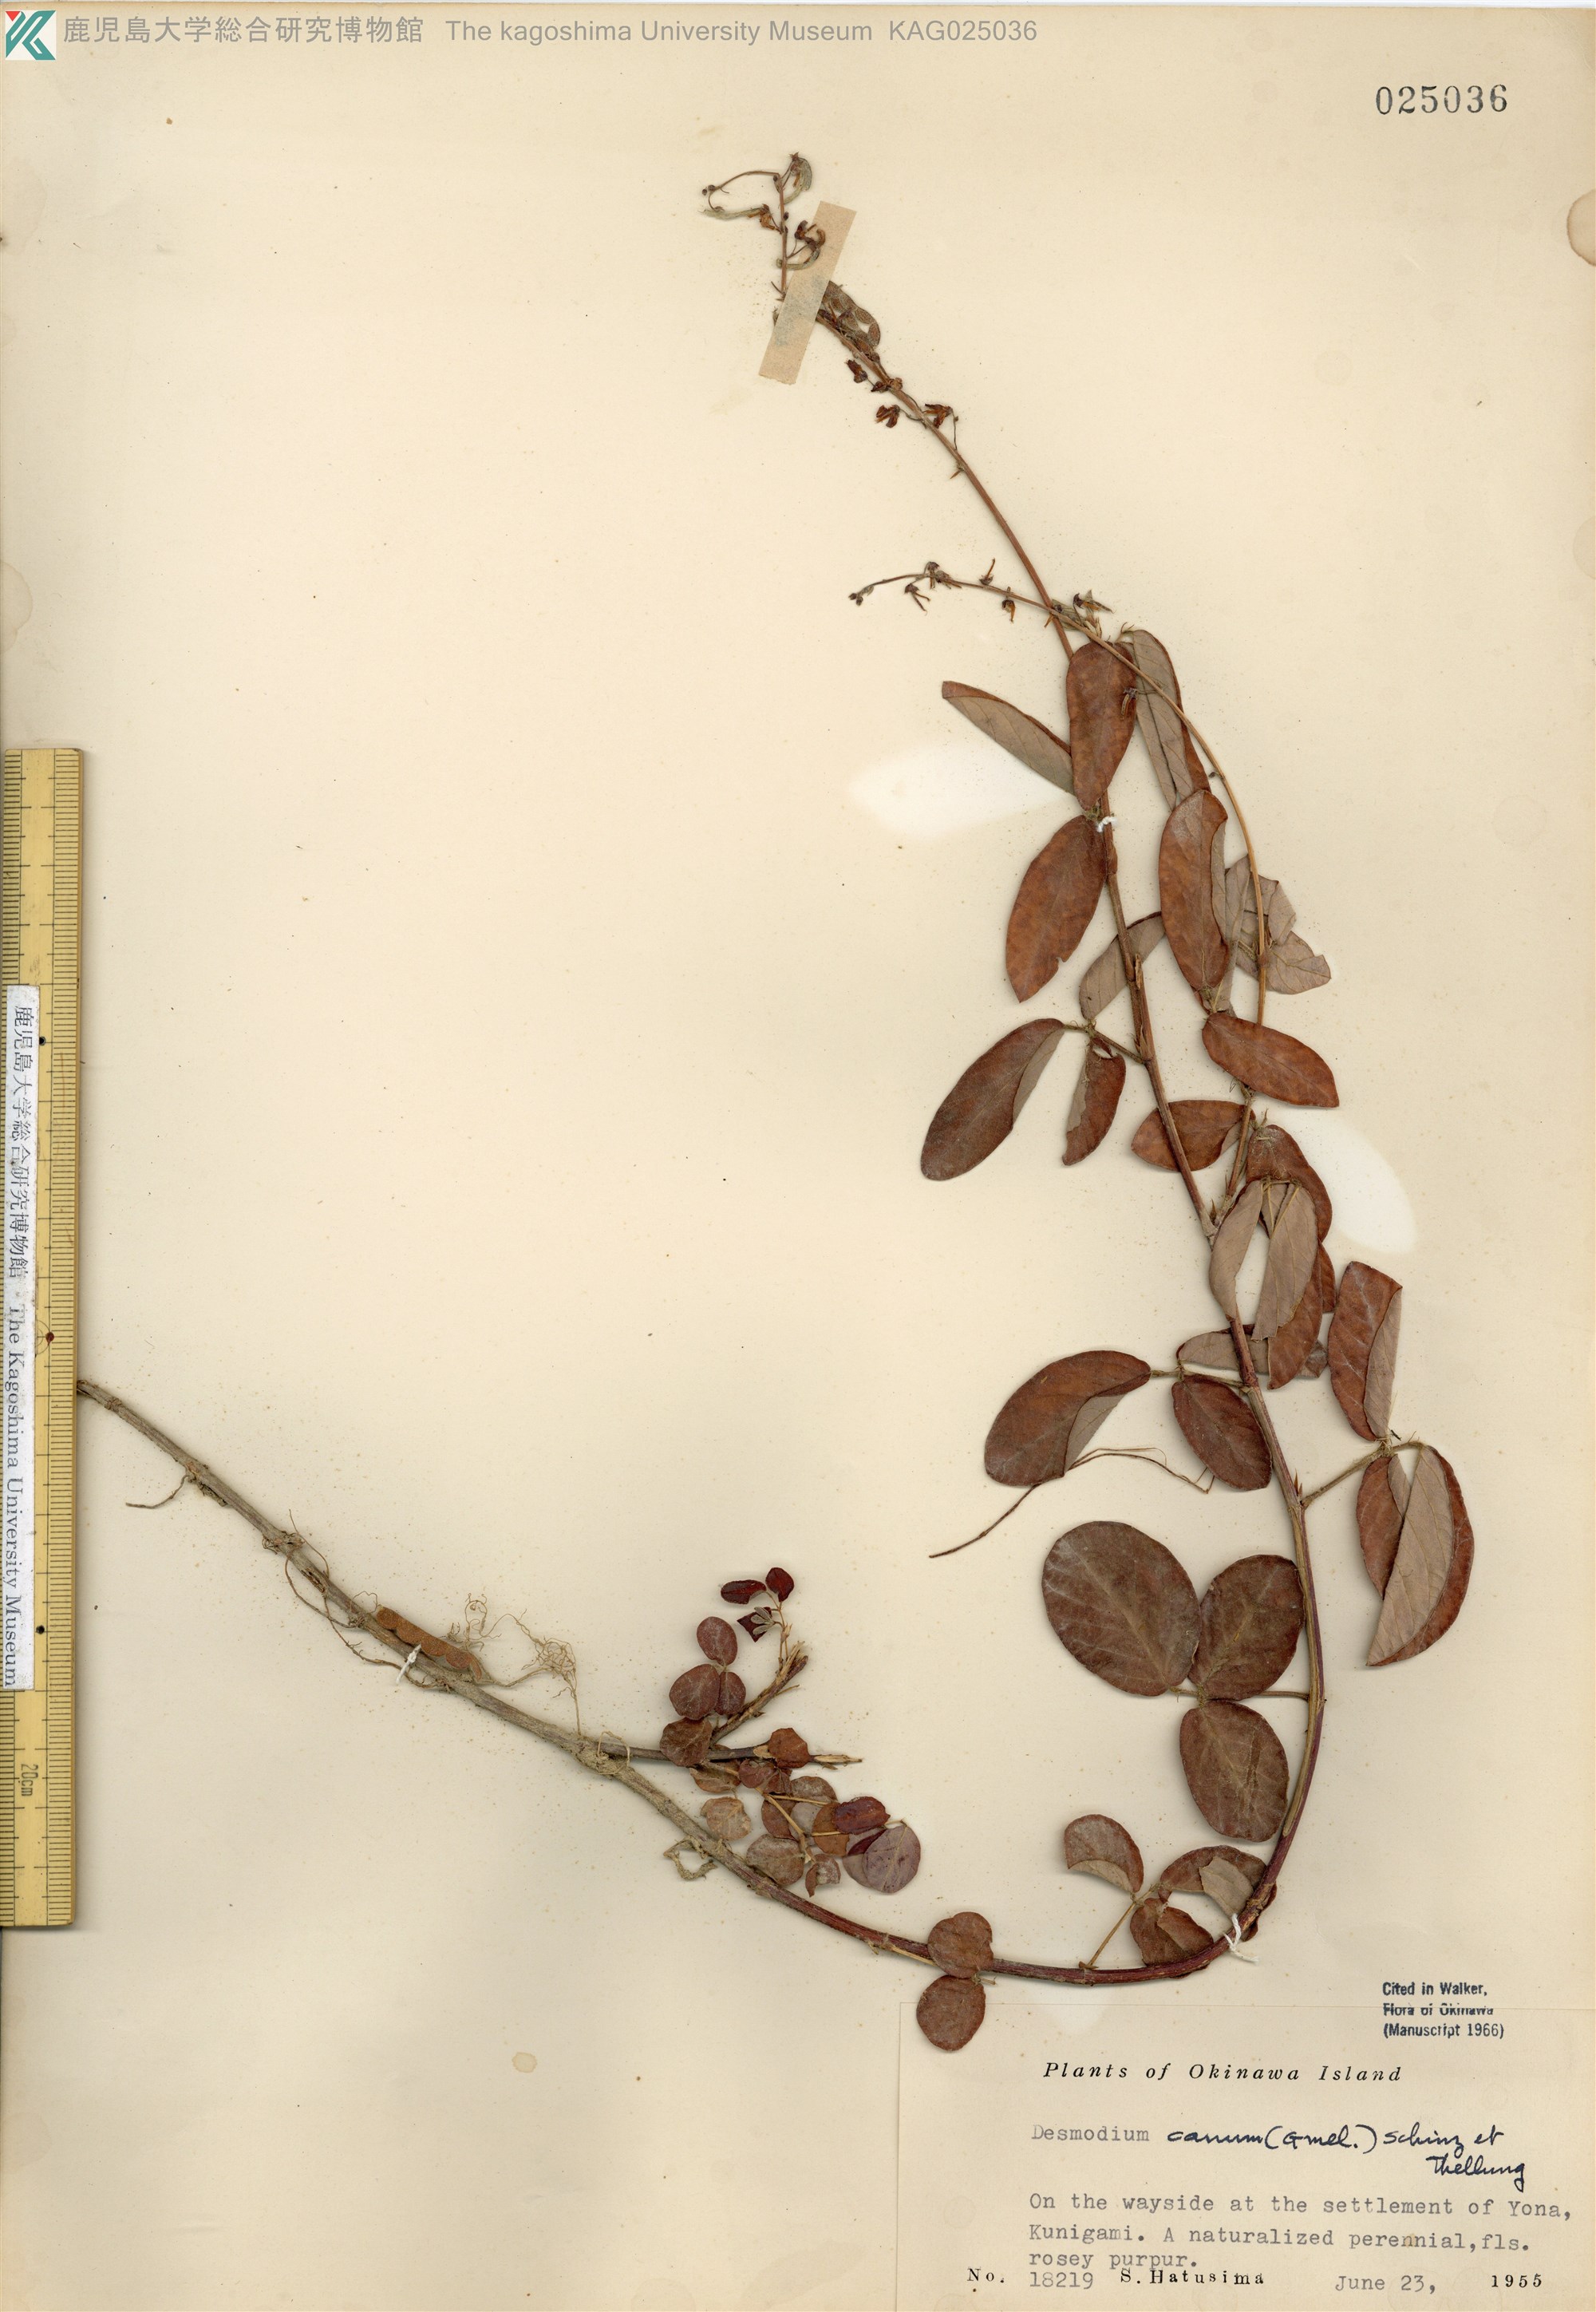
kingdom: Plantae
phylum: Tracheophyta
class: Magnoliopsida
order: Fabales
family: Fabaceae
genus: Desmodium
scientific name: Desmodium incanum
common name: Tickclover
